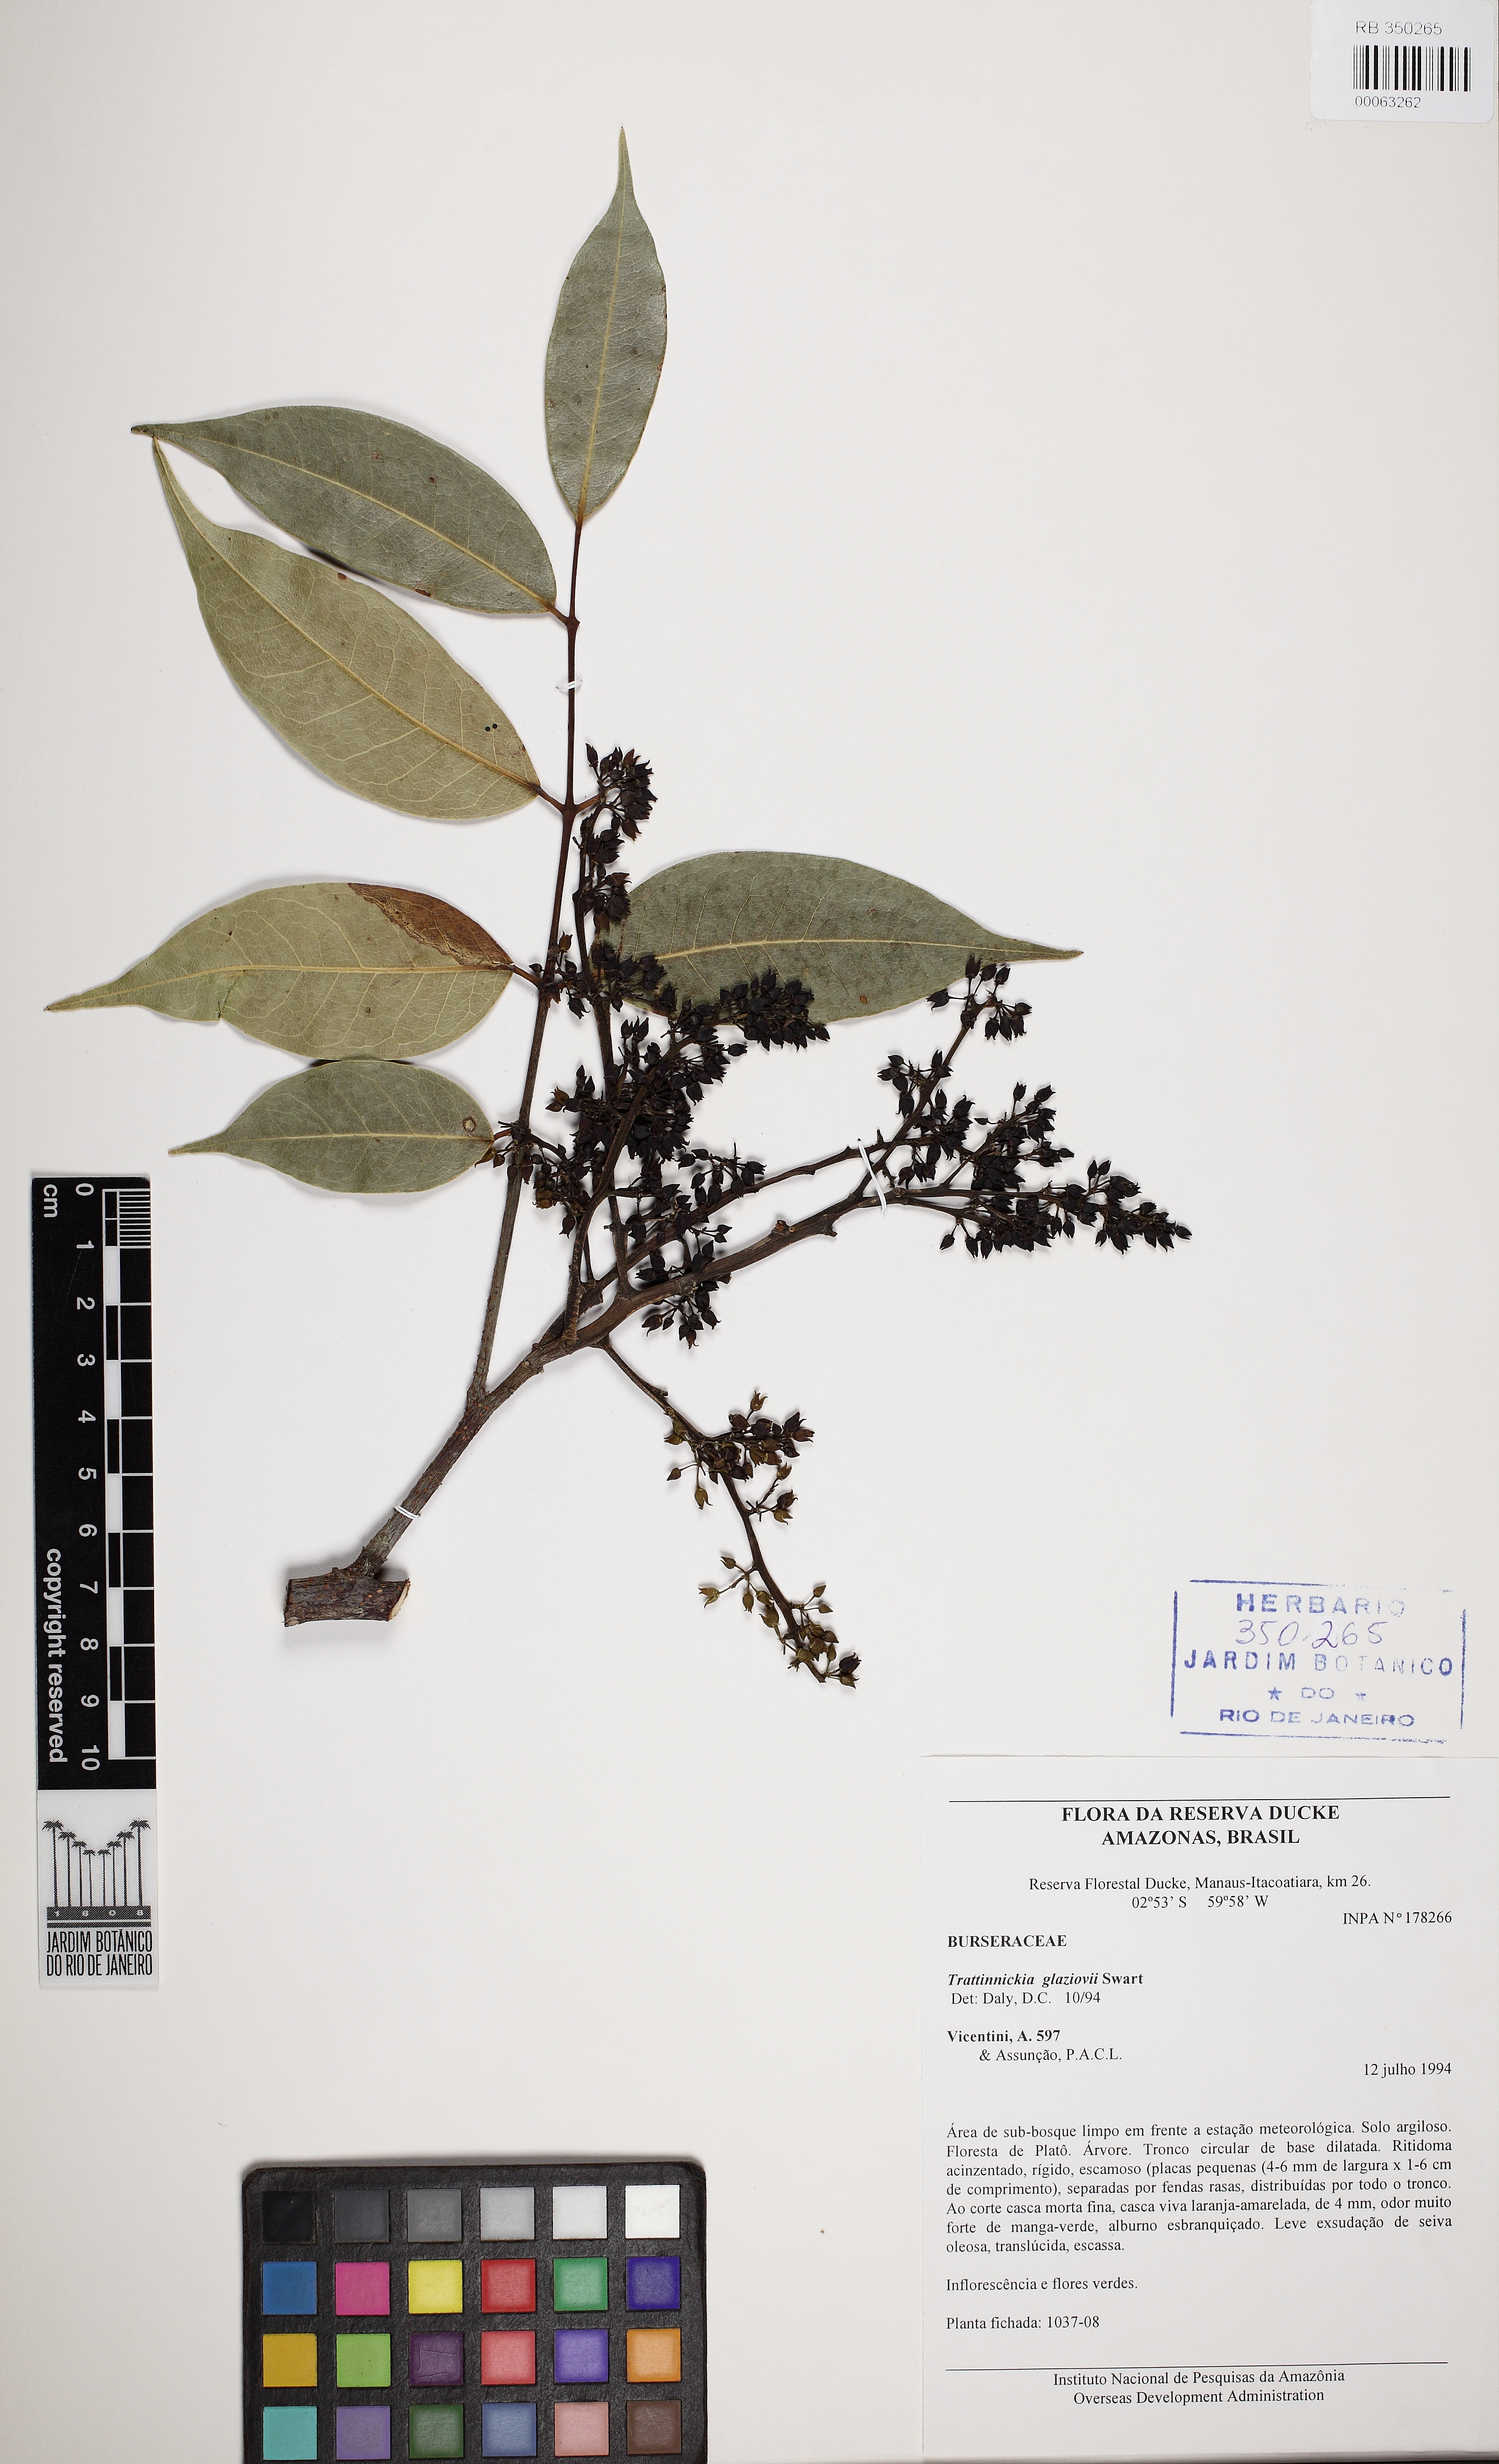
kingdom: Plantae
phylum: Tracheophyta
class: Magnoliopsida
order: Sapindales
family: Burseraceae
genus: Trattinnickia
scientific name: Trattinnickia glaziovii
